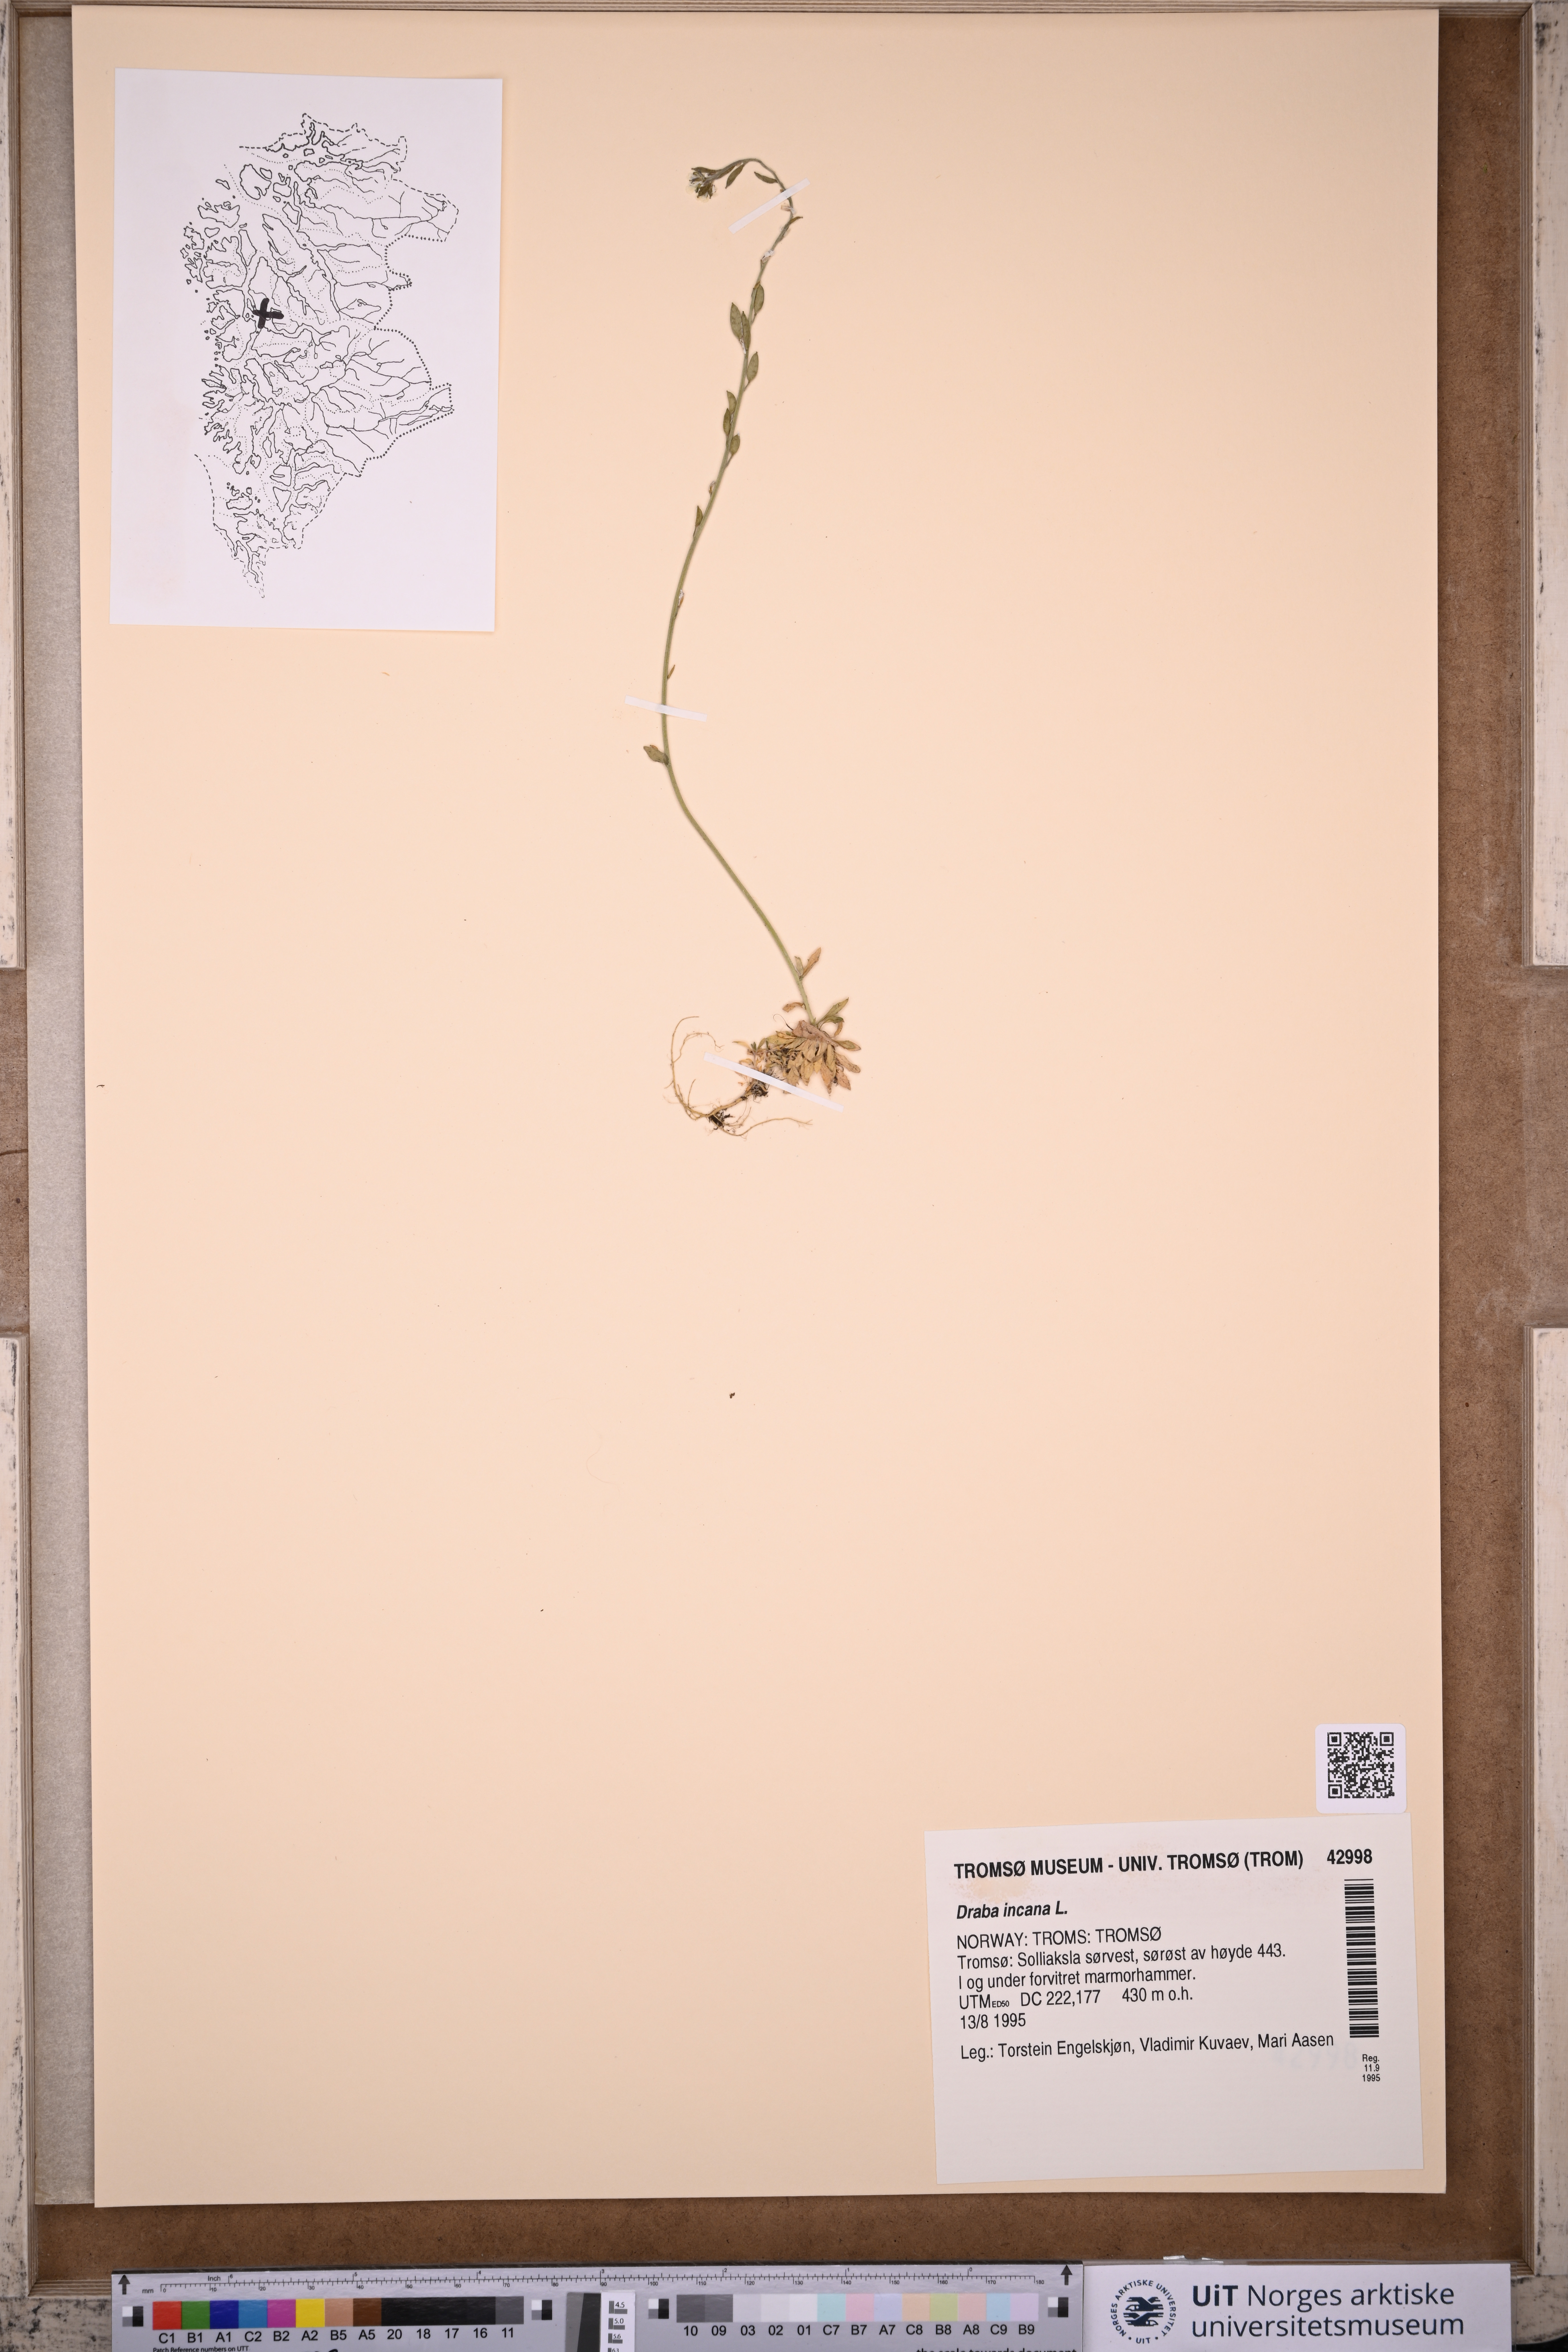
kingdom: Plantae
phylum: Tracheophyta
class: Magnoliopsida
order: Brassicales
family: Brassicaceae
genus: Draba
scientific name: Draba incana
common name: Hoary whitlow-grass
